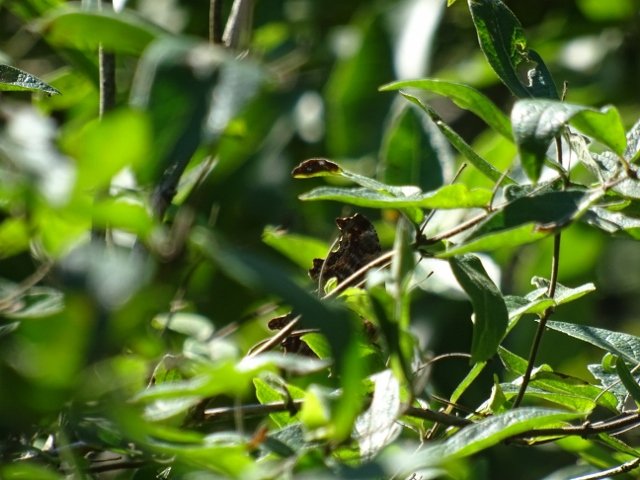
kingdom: Animalia
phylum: Arthropoda
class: Insecta
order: Lepidoptera
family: Nymphalidae
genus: Polygonia
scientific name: Polygonia
